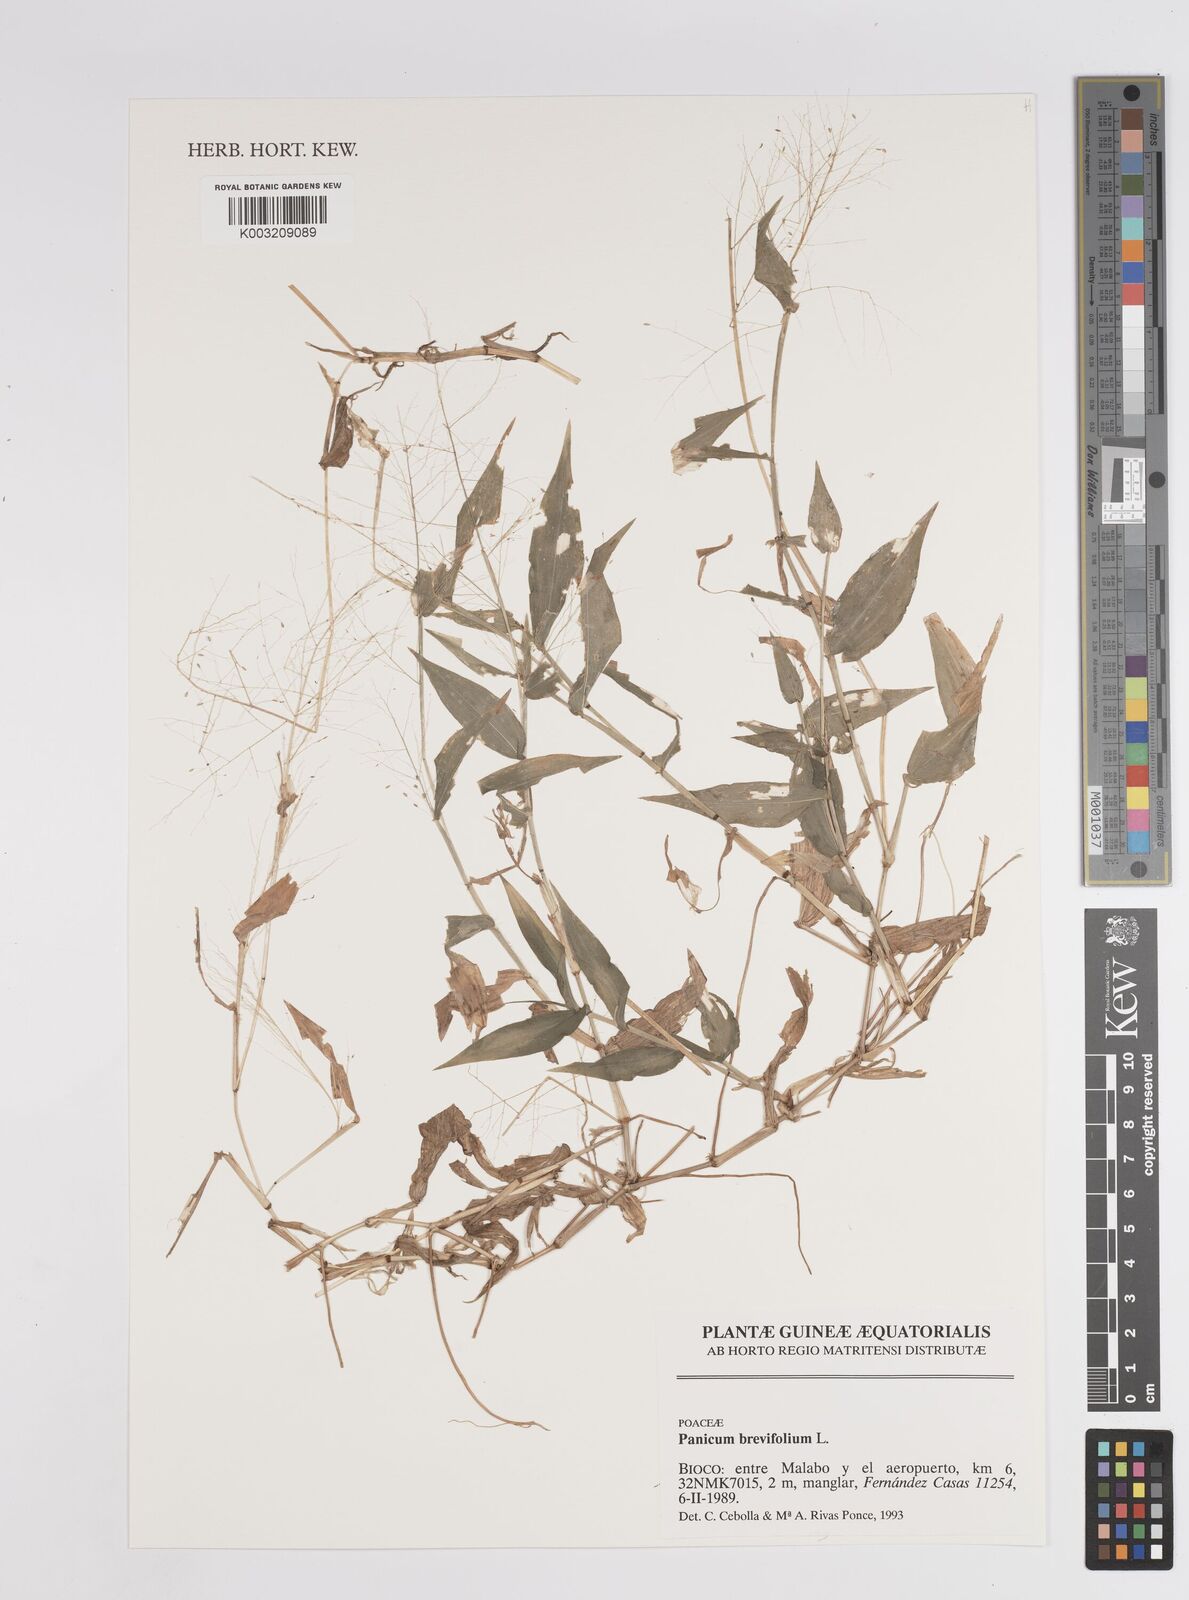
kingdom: Plantae
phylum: Tracheophyta
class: Liliopsida
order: Poales
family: Poaceae
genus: Panicum
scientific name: Panicum brevifolium
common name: Shortleaf panic grass
